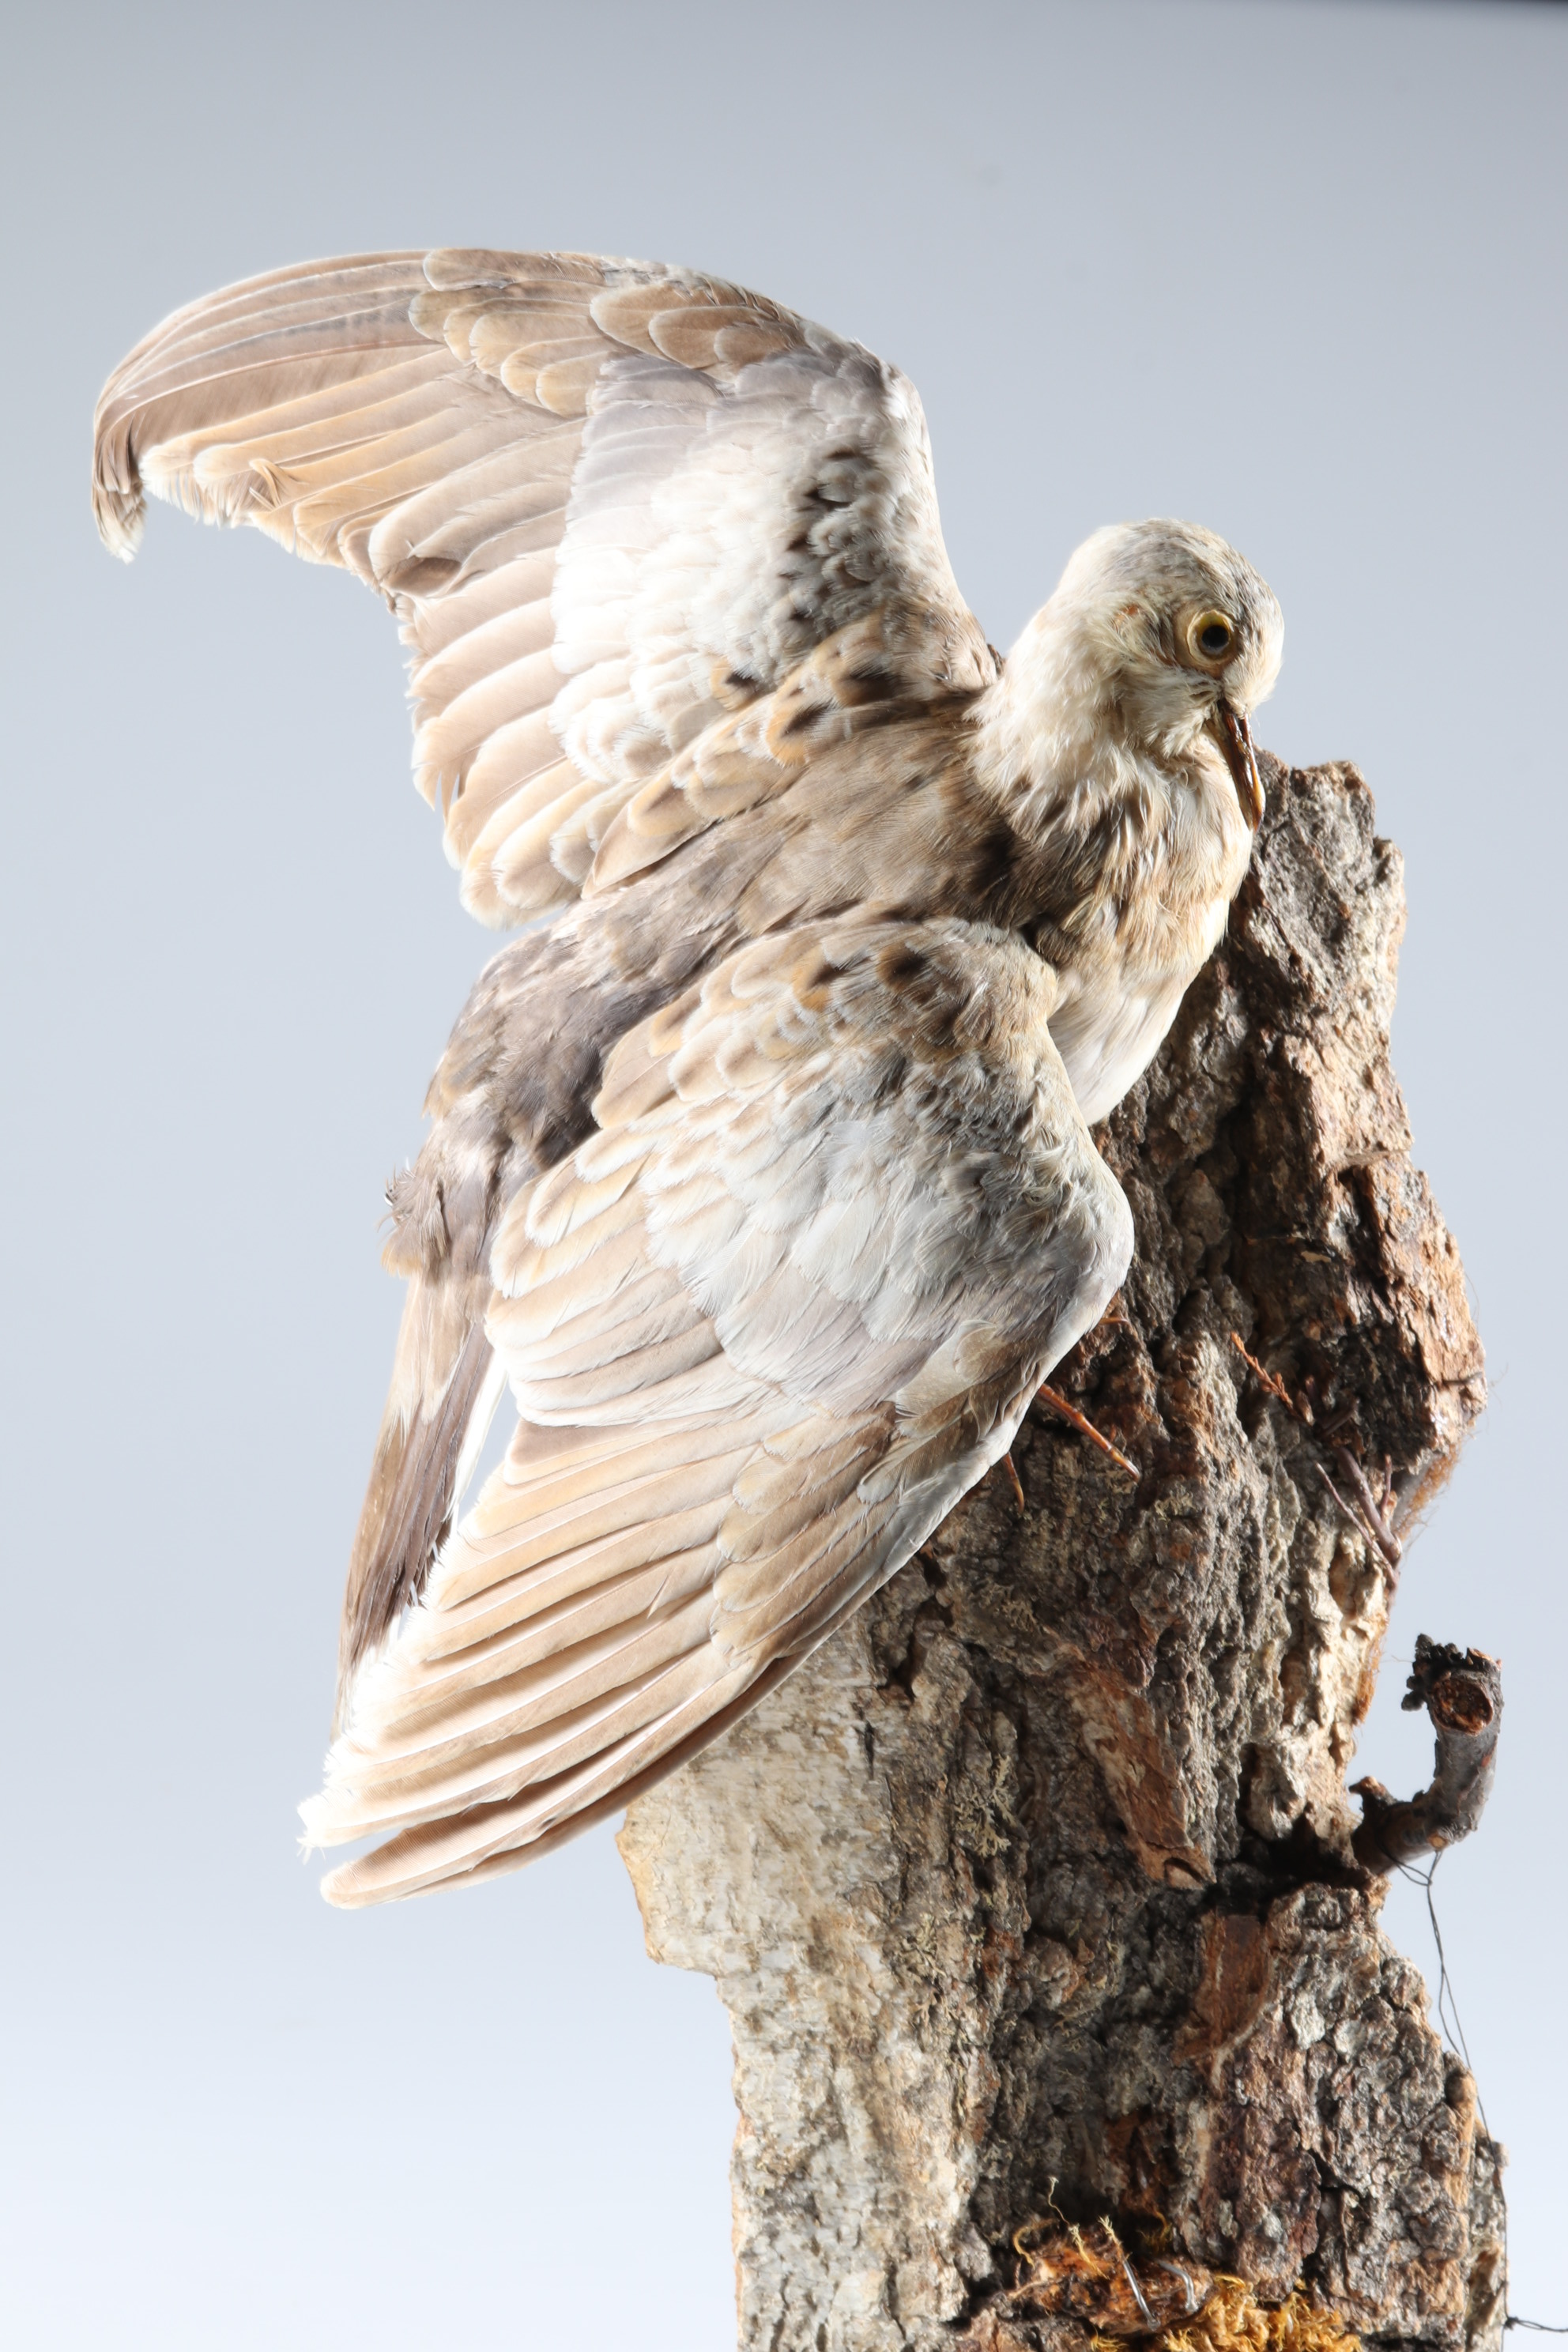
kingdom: Animalia
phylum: Chordata
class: Aves
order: Columbiformes
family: Columbidae
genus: Streptopelia
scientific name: Streptopelia turtur
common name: European turtle dove
